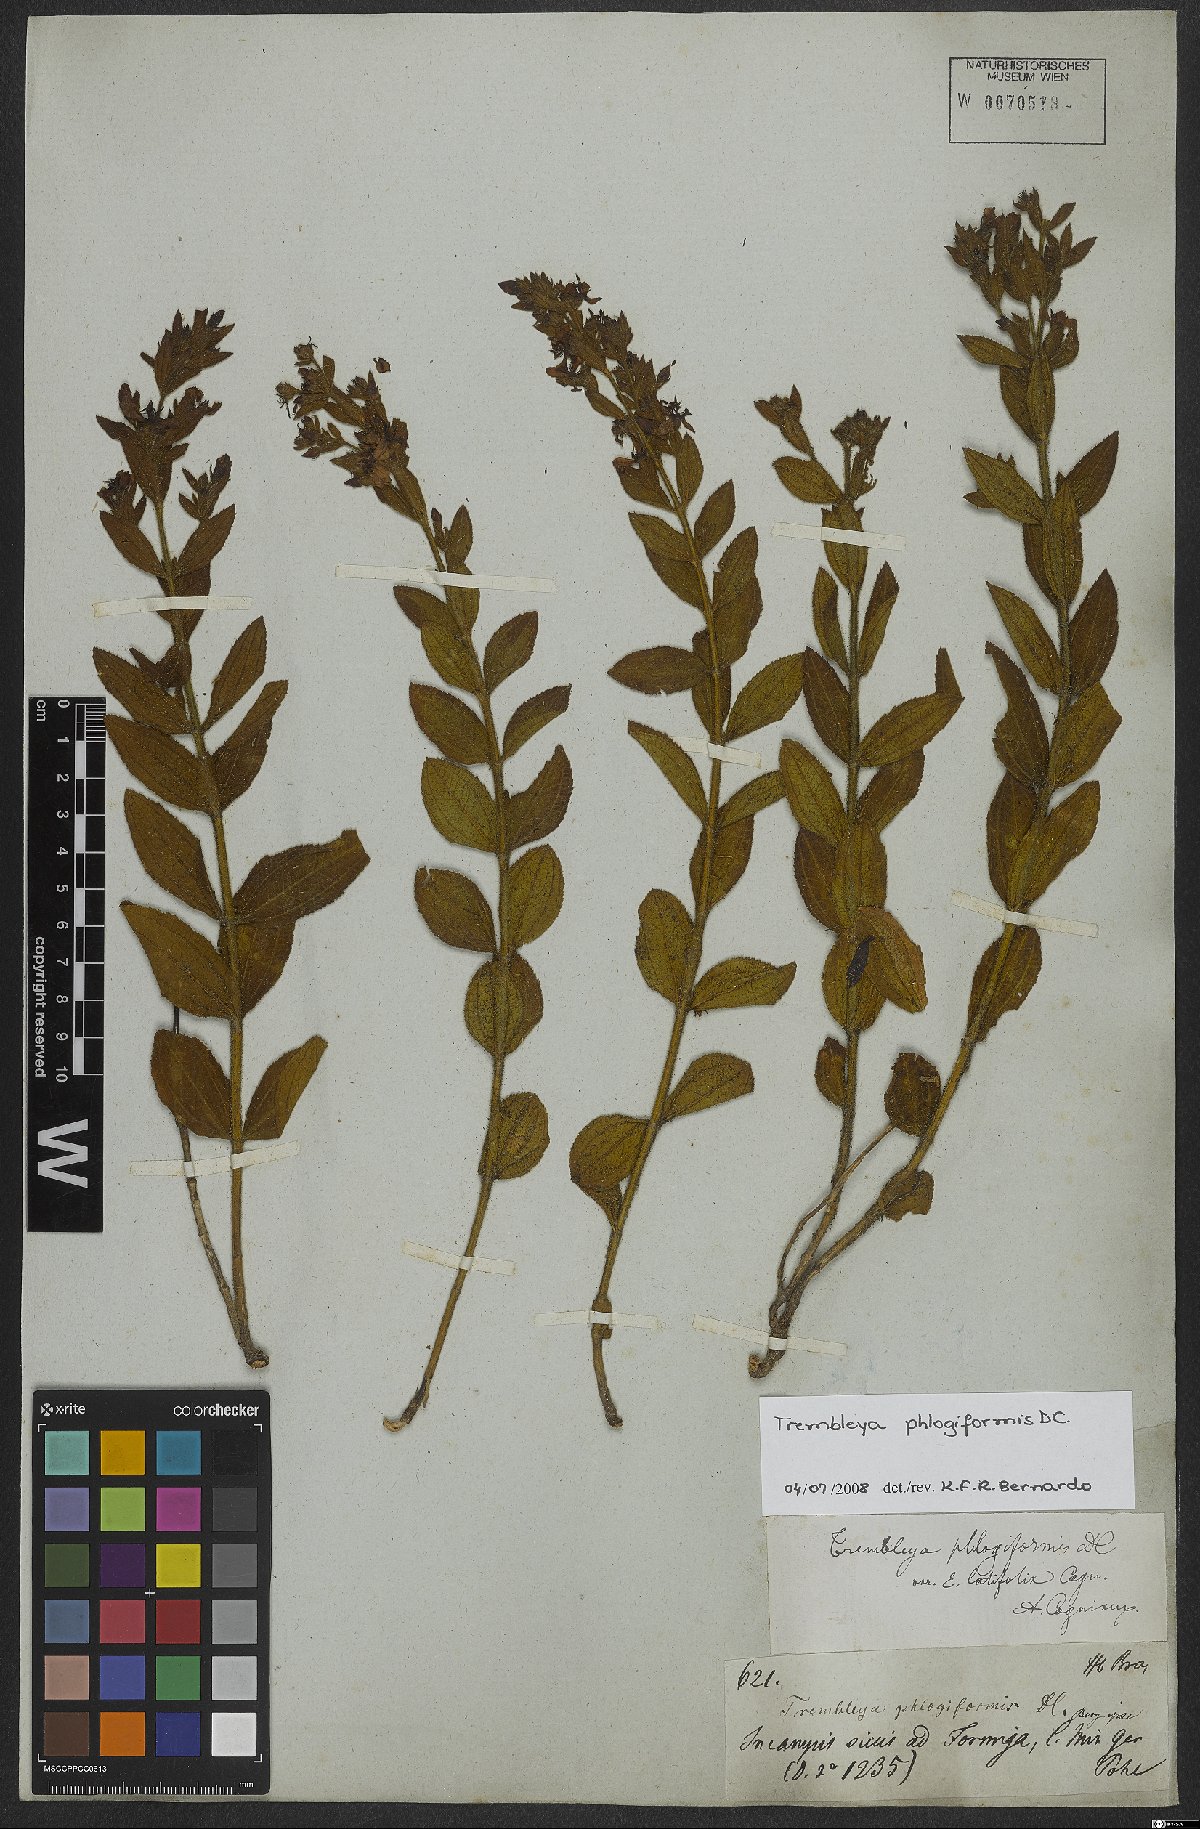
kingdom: Plantae
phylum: Tracheophyta
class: Magnoliopsida
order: Myrtales
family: Melastomataceae
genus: Microlicia
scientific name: Microlicia phlogiformis
